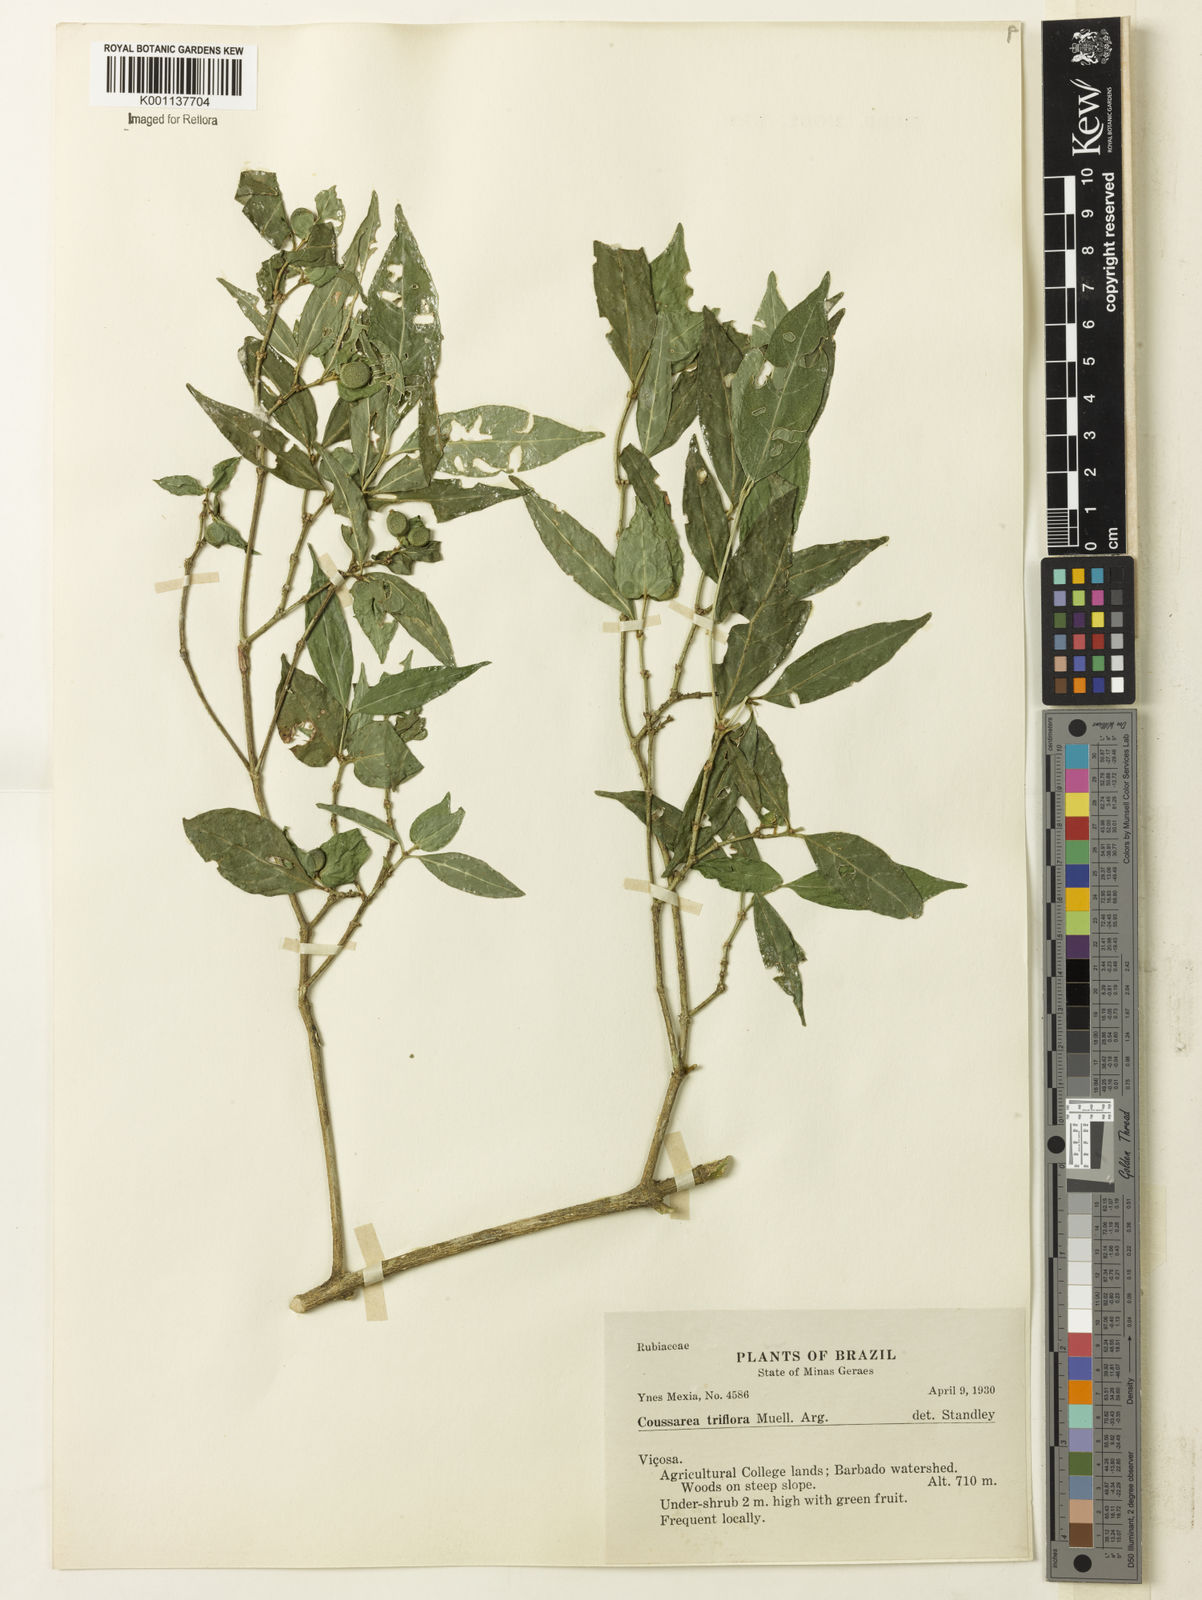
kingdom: Plantae
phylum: Tracheophyta
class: Magnoliopsida
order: Gentianales
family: Rubiaceae
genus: Coussarea
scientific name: Coussarea
